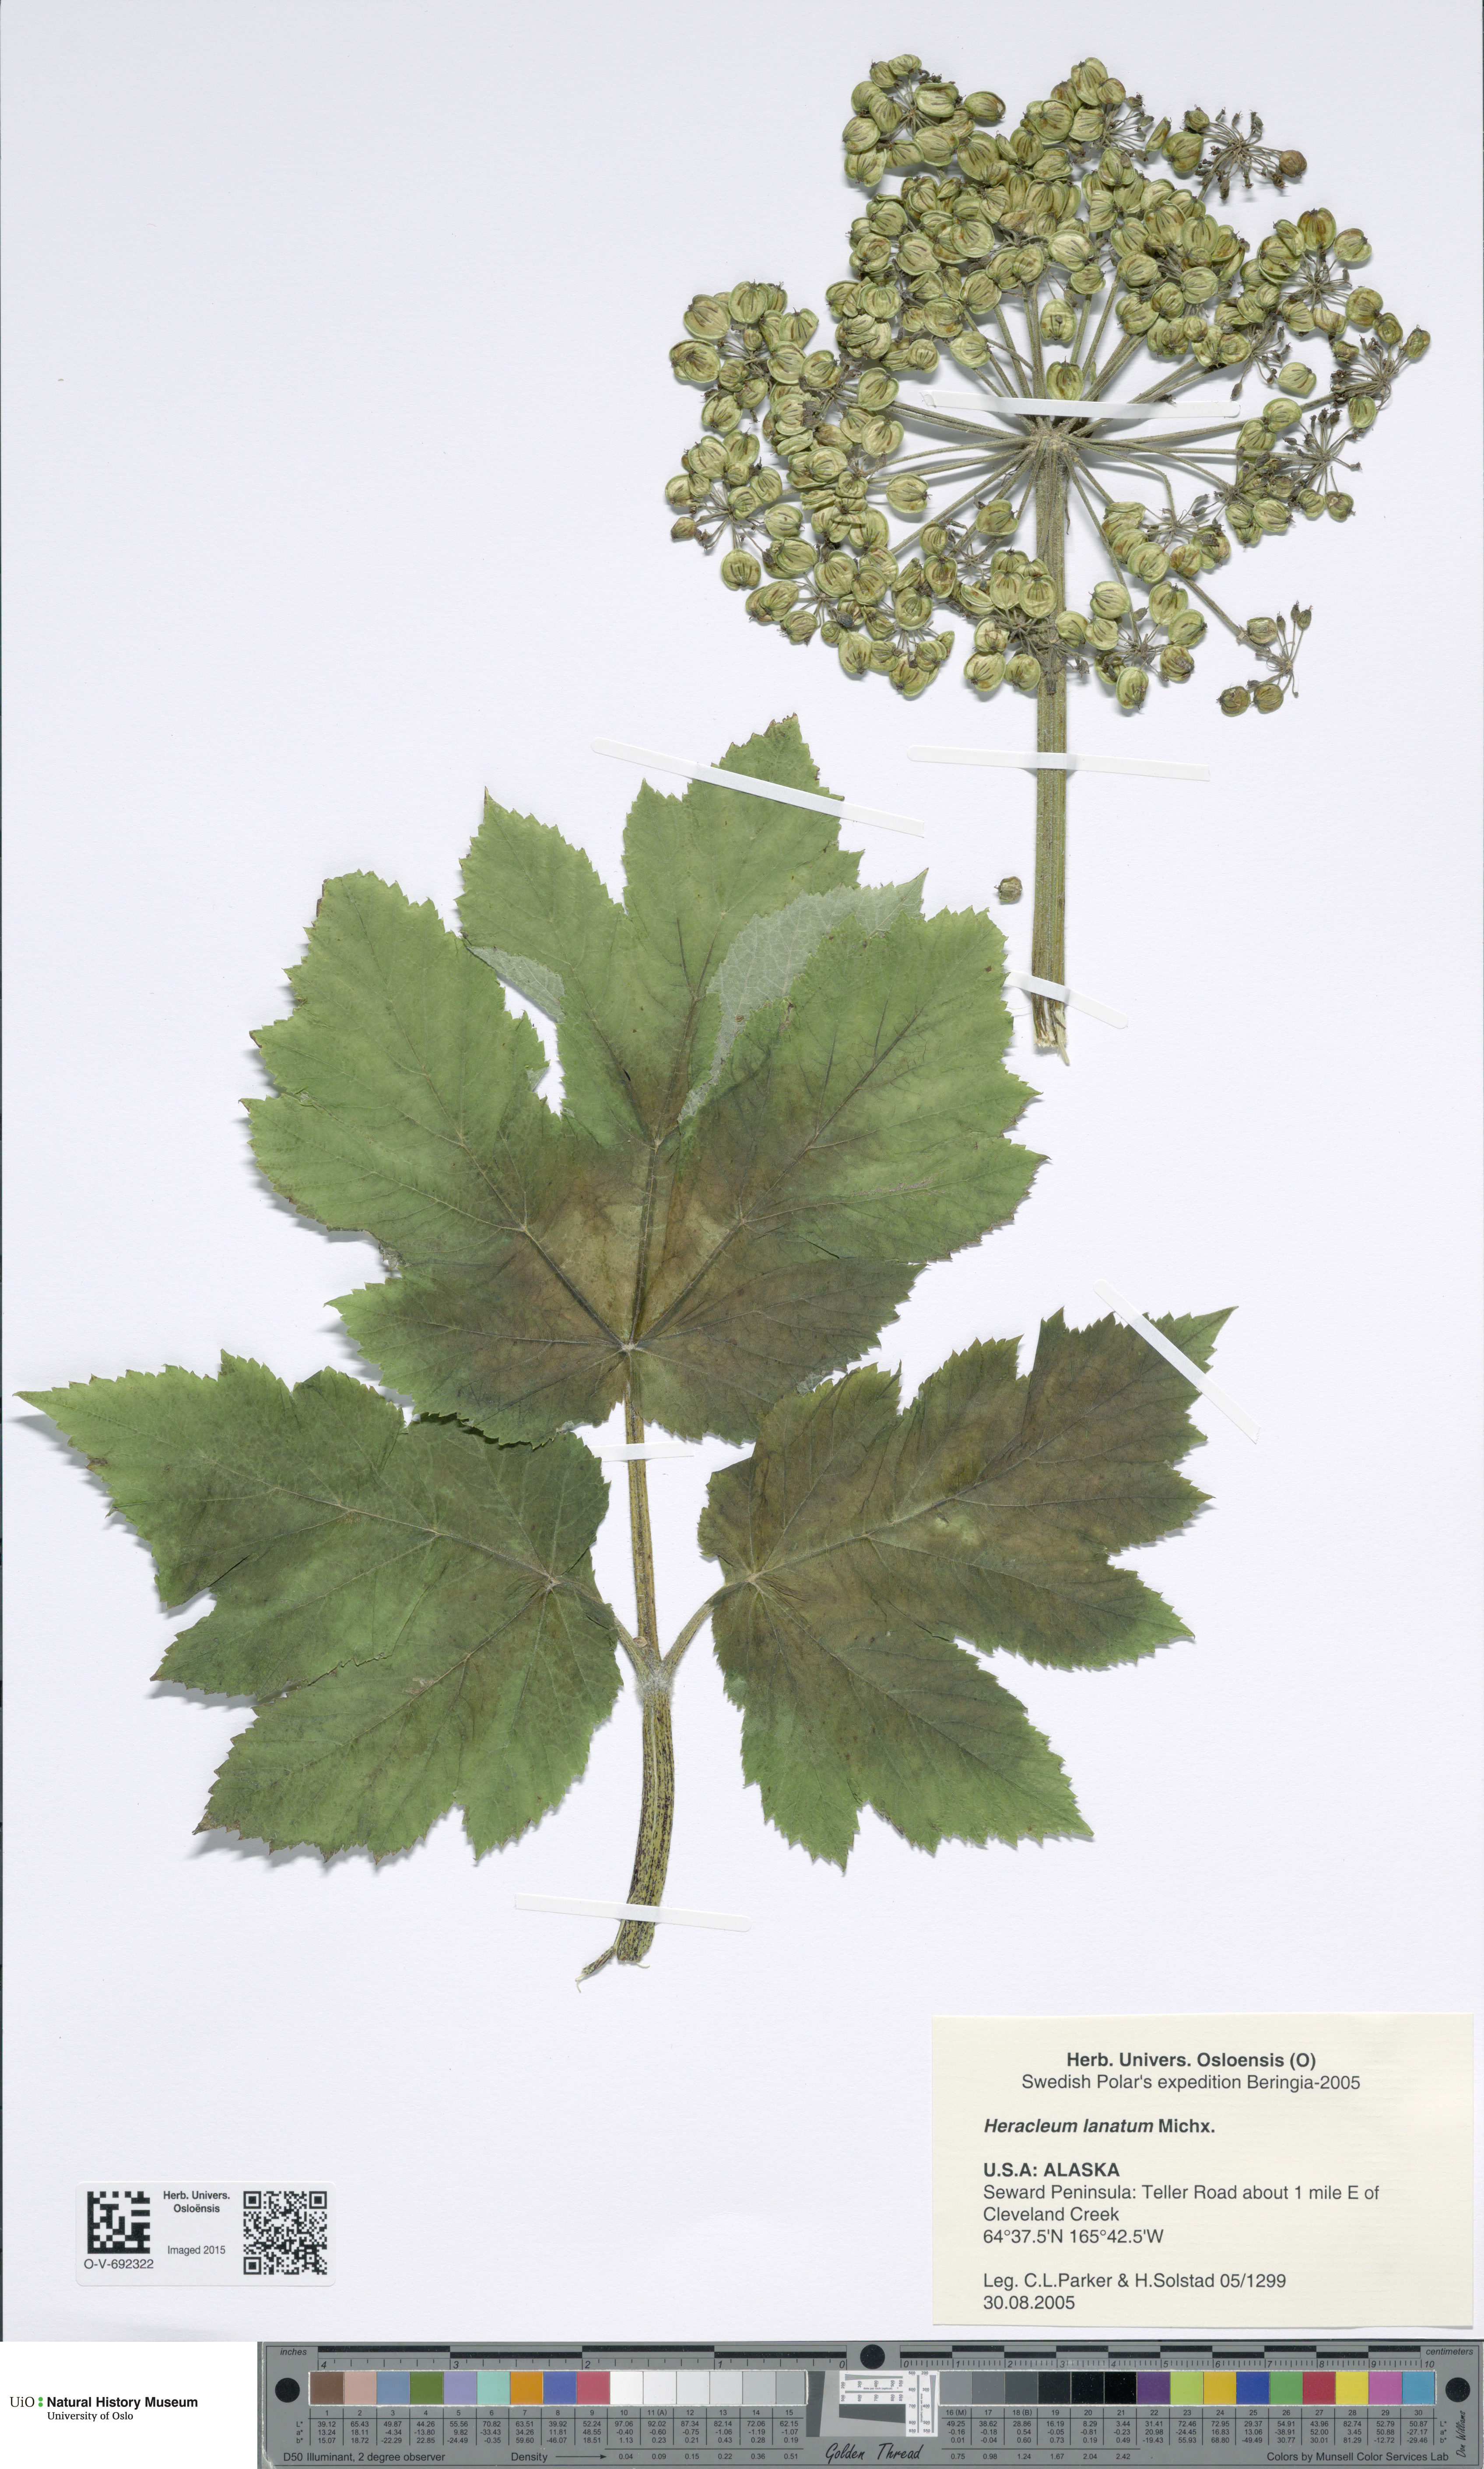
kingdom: Plantae
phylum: Tracheophyta
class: Magnoliopsida
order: Apiales
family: Apiaceae
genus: Heracleum
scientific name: Heracleum maximum
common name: American cow parsnip
